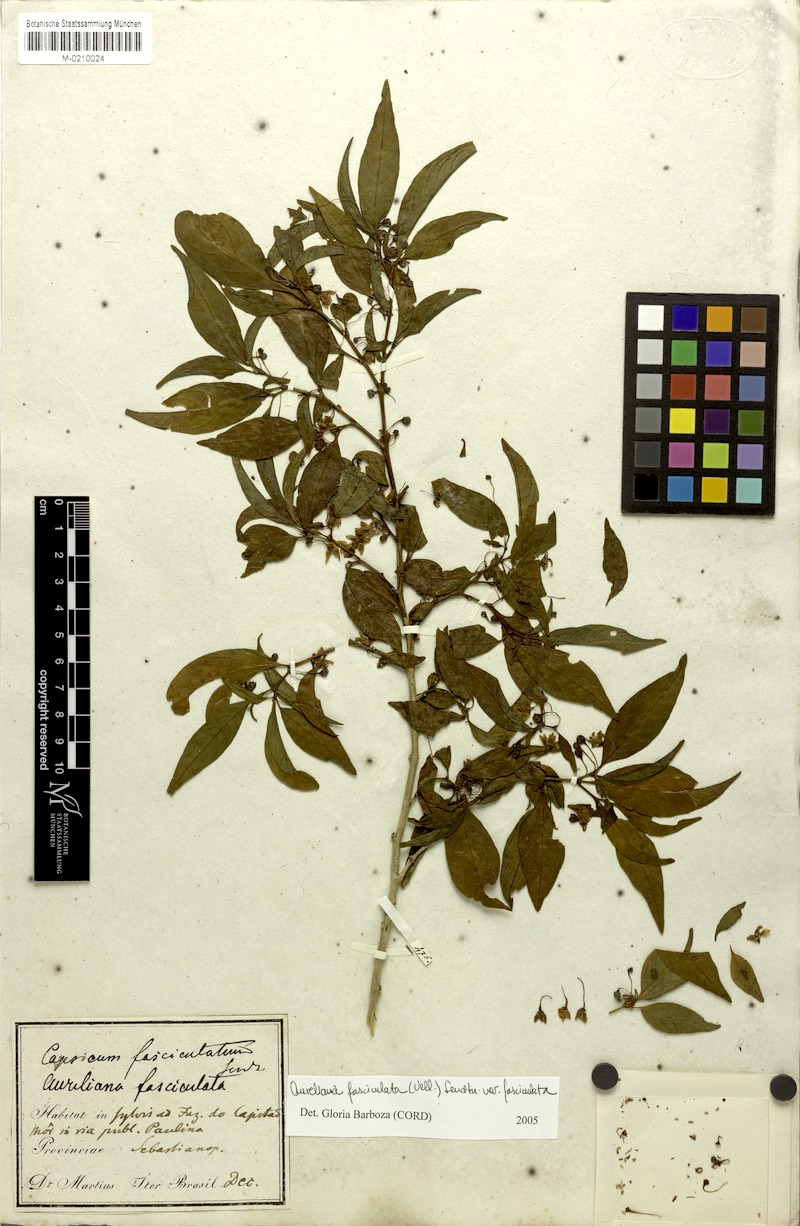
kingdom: Plantae
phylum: Tracheophyta
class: Magnoliopsida
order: Solanales
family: Solanaceae
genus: Athenaea
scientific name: Athenaea fasciculata
